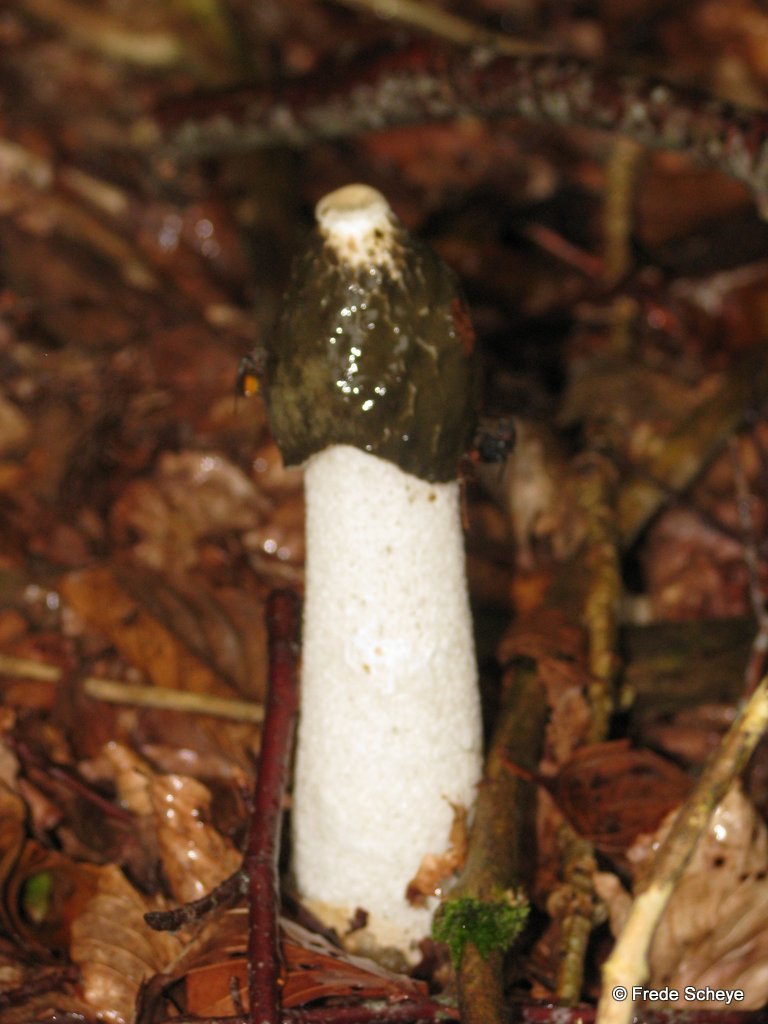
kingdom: Fungi
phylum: Basidiomycota
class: Agaricomycetes
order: Phallales
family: Phallaceae
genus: Phallus
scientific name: Phallus impudicus
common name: almindelig stinksvamp
